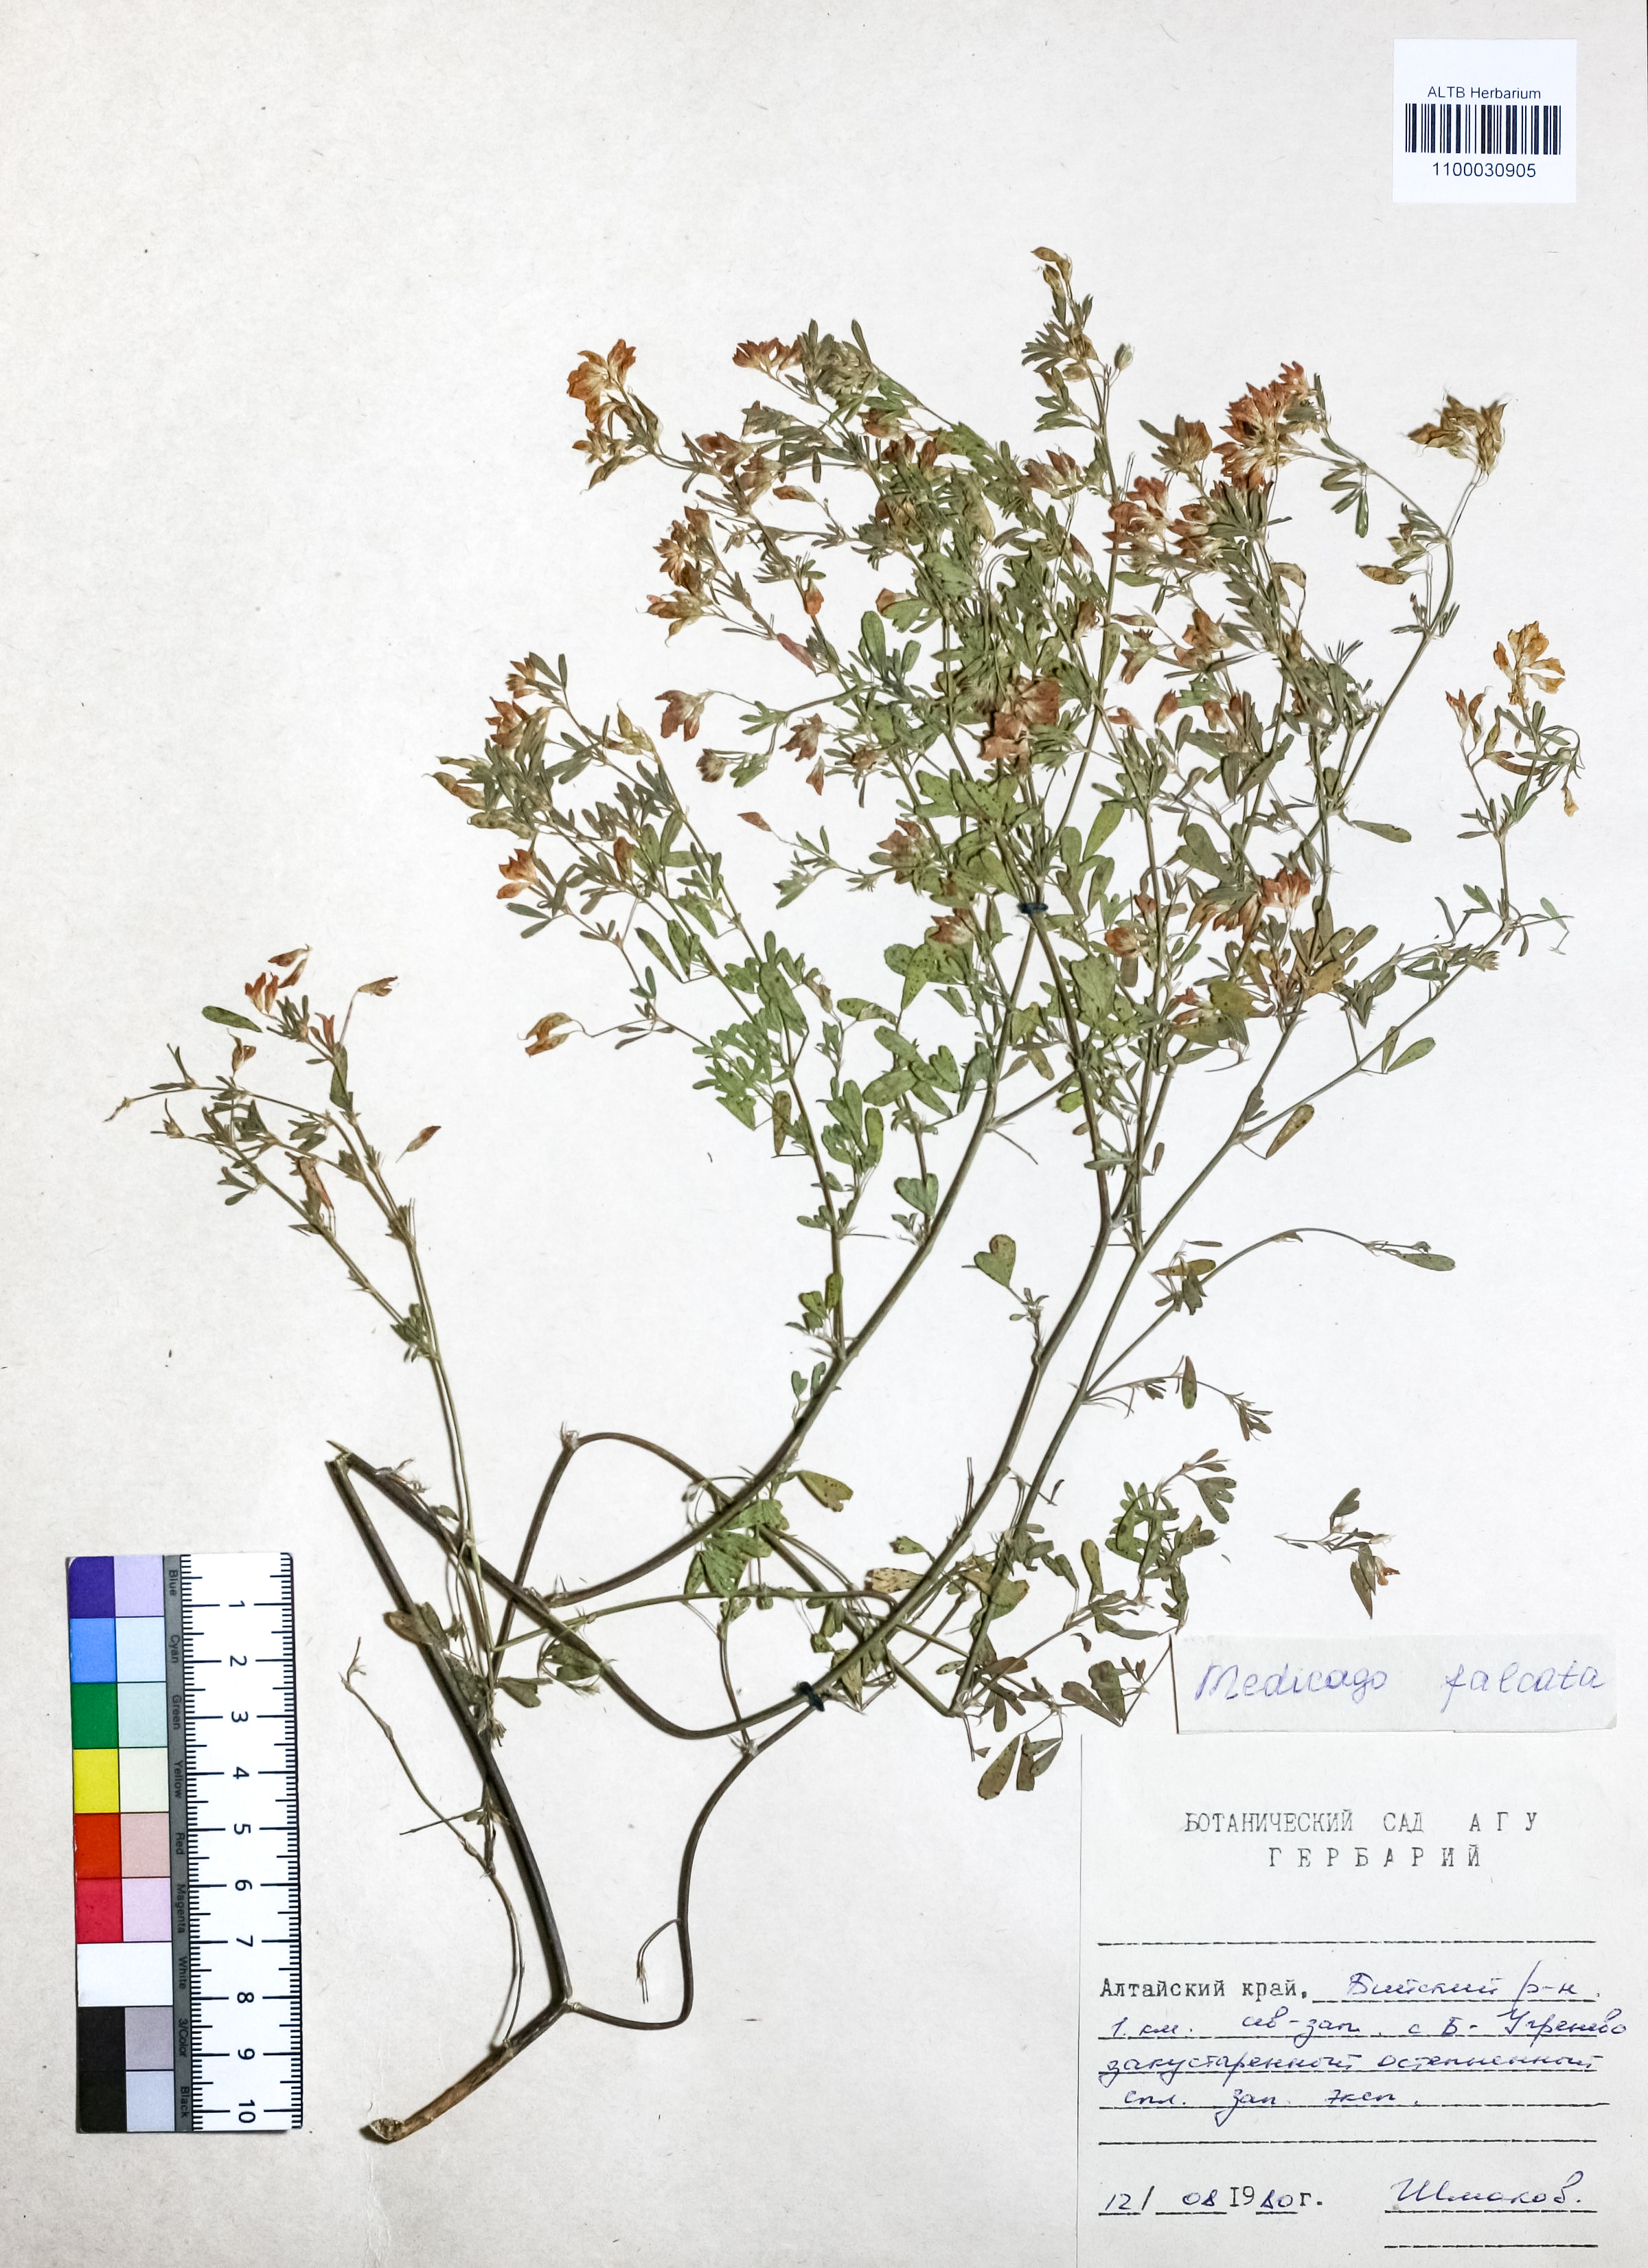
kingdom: Plantae
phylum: Tracheophyta
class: Magnoliopsida
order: Fabales
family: Fabaceae
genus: Medicago
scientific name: Medicago falcata
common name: Sickle medick
